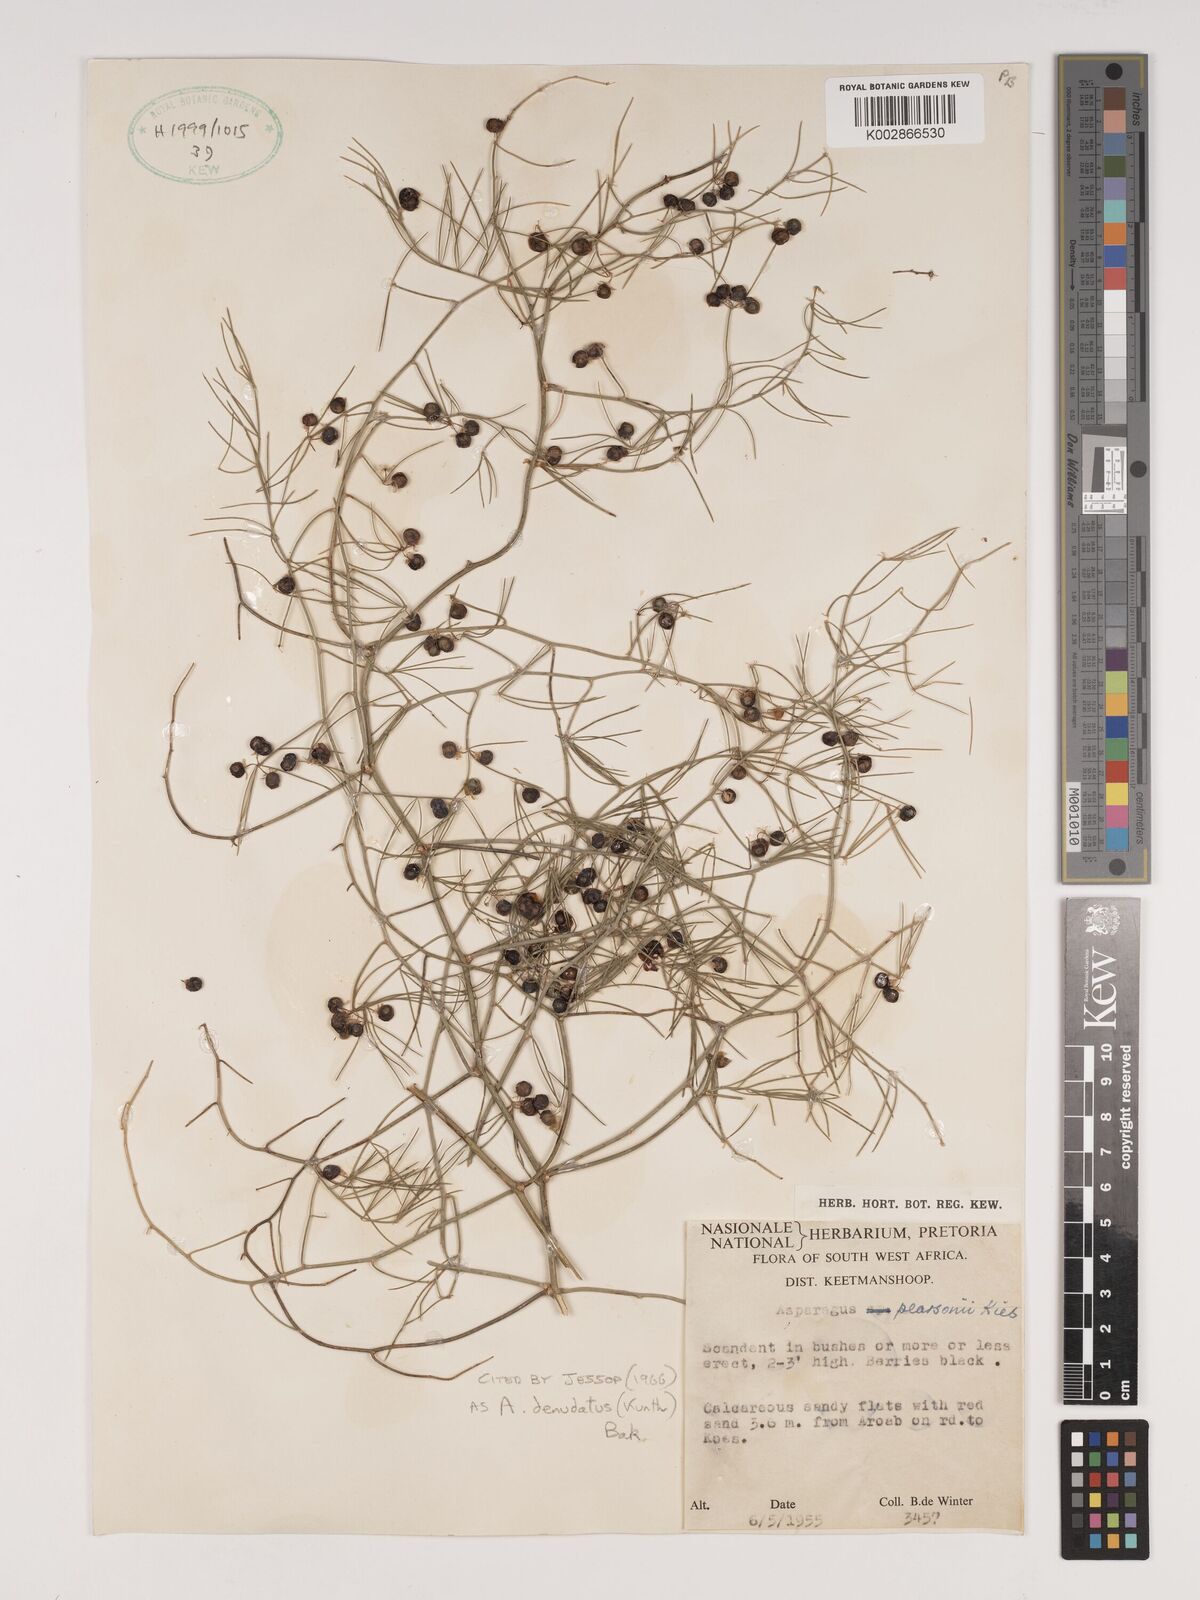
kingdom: Plantae
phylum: Tracheophyta
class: Liliopsida
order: Asparagales
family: Asparagaceae
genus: Asparagus
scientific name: Asparagus denudatus
